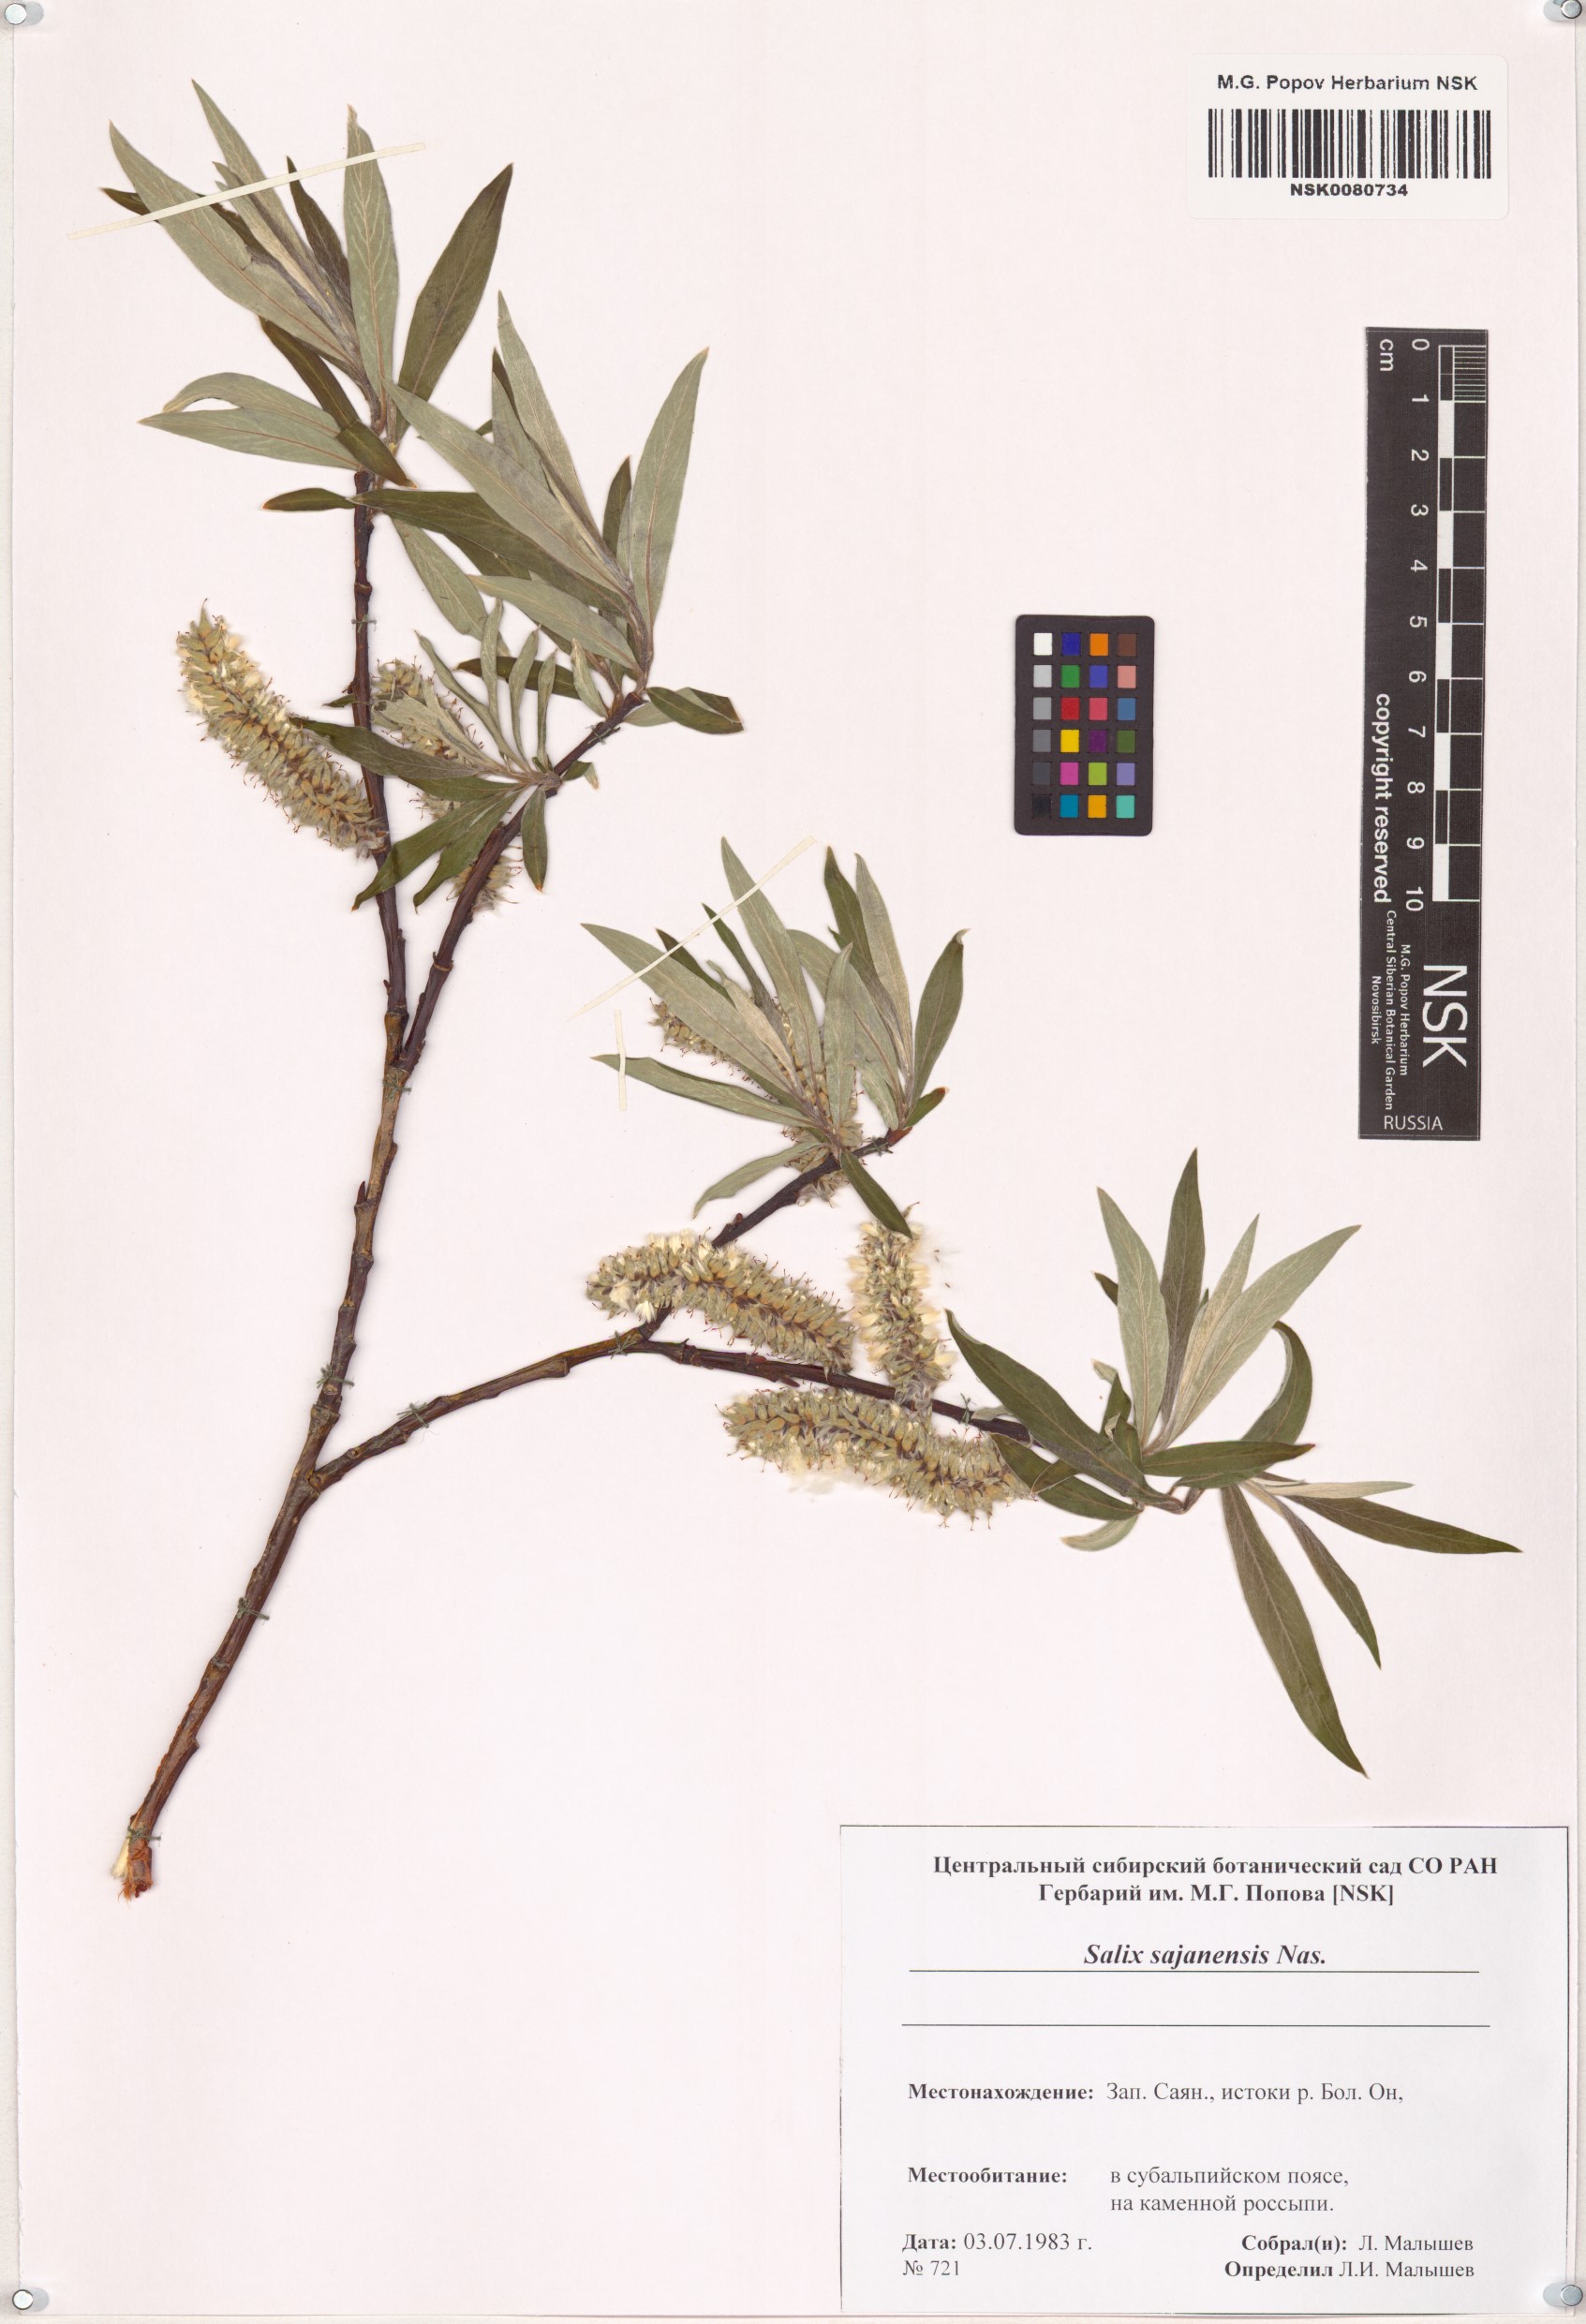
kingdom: Plantae
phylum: Tracheophyta
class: Magnoliopsida
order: Malpighiales
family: Salicaceae
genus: Salix
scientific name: Salix sajanensis
